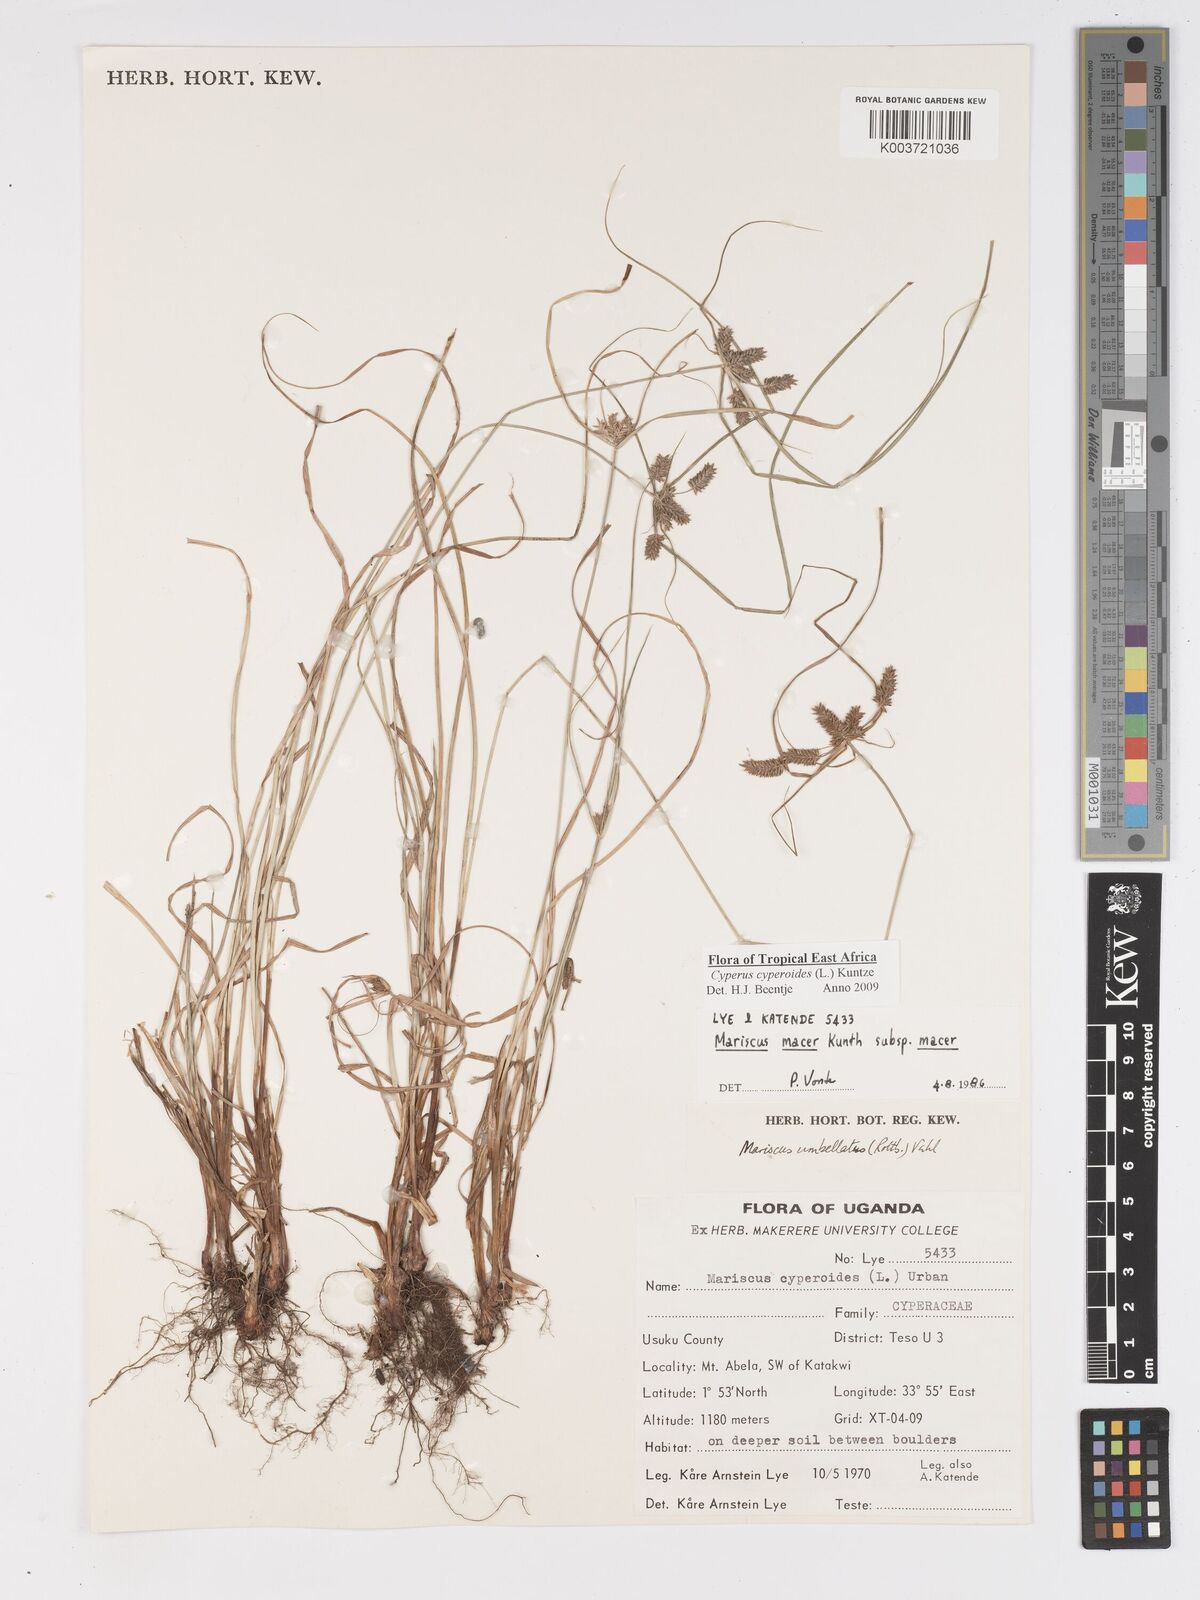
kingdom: Plantae
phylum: Tracheophyta
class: Liliopsida
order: Poales
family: Cyperaceae
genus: Cyperus
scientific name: Cyperus cyperoides
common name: Pacific island flat sedge
